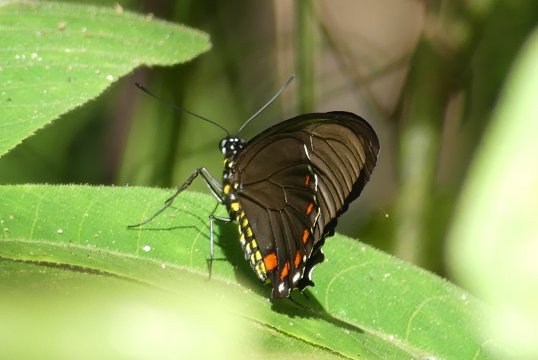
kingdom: Animalia
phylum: Arthropoda
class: Insecta
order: Lepidoptera
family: Papilionidae
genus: Battus
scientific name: Battus ingenuus
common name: Dyar's Swallowtail
